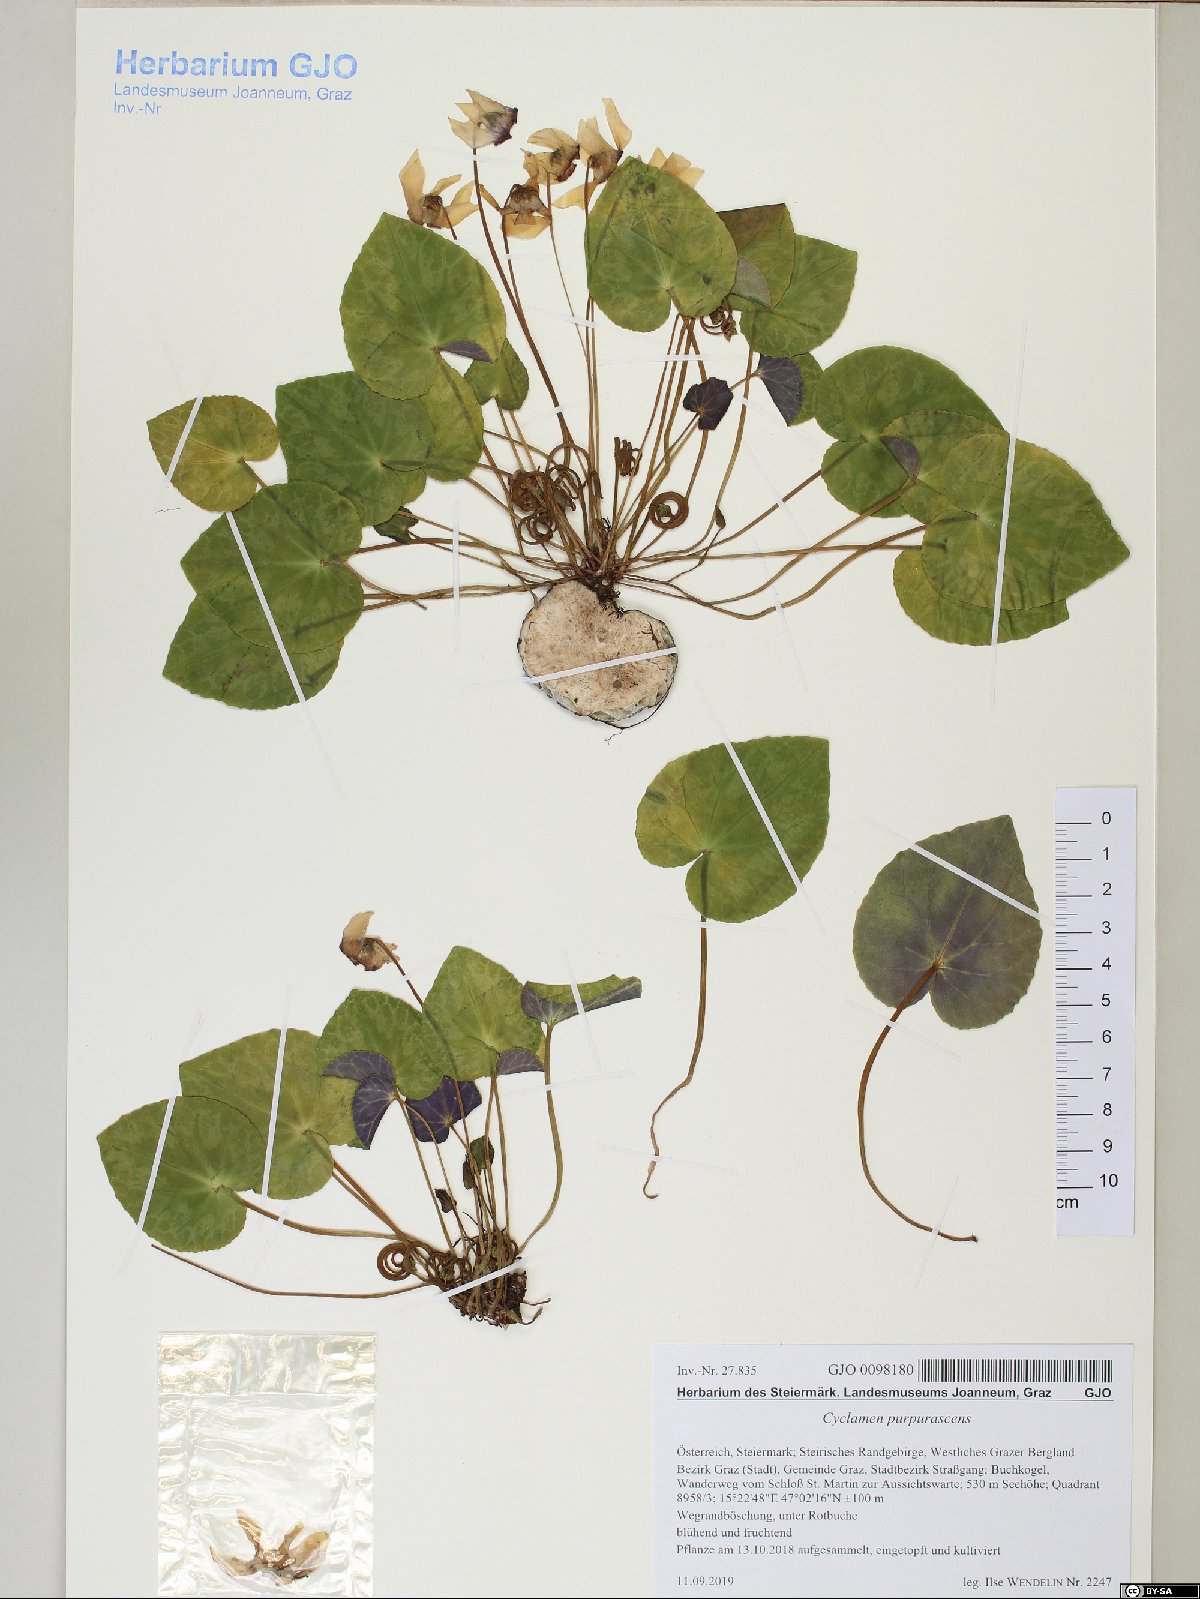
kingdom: Plantae
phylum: Tracheophyta
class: Magnoliopsida
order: Ericales
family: Primulaceae
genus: Cyclamen
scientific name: Cyclamen purpurascens
